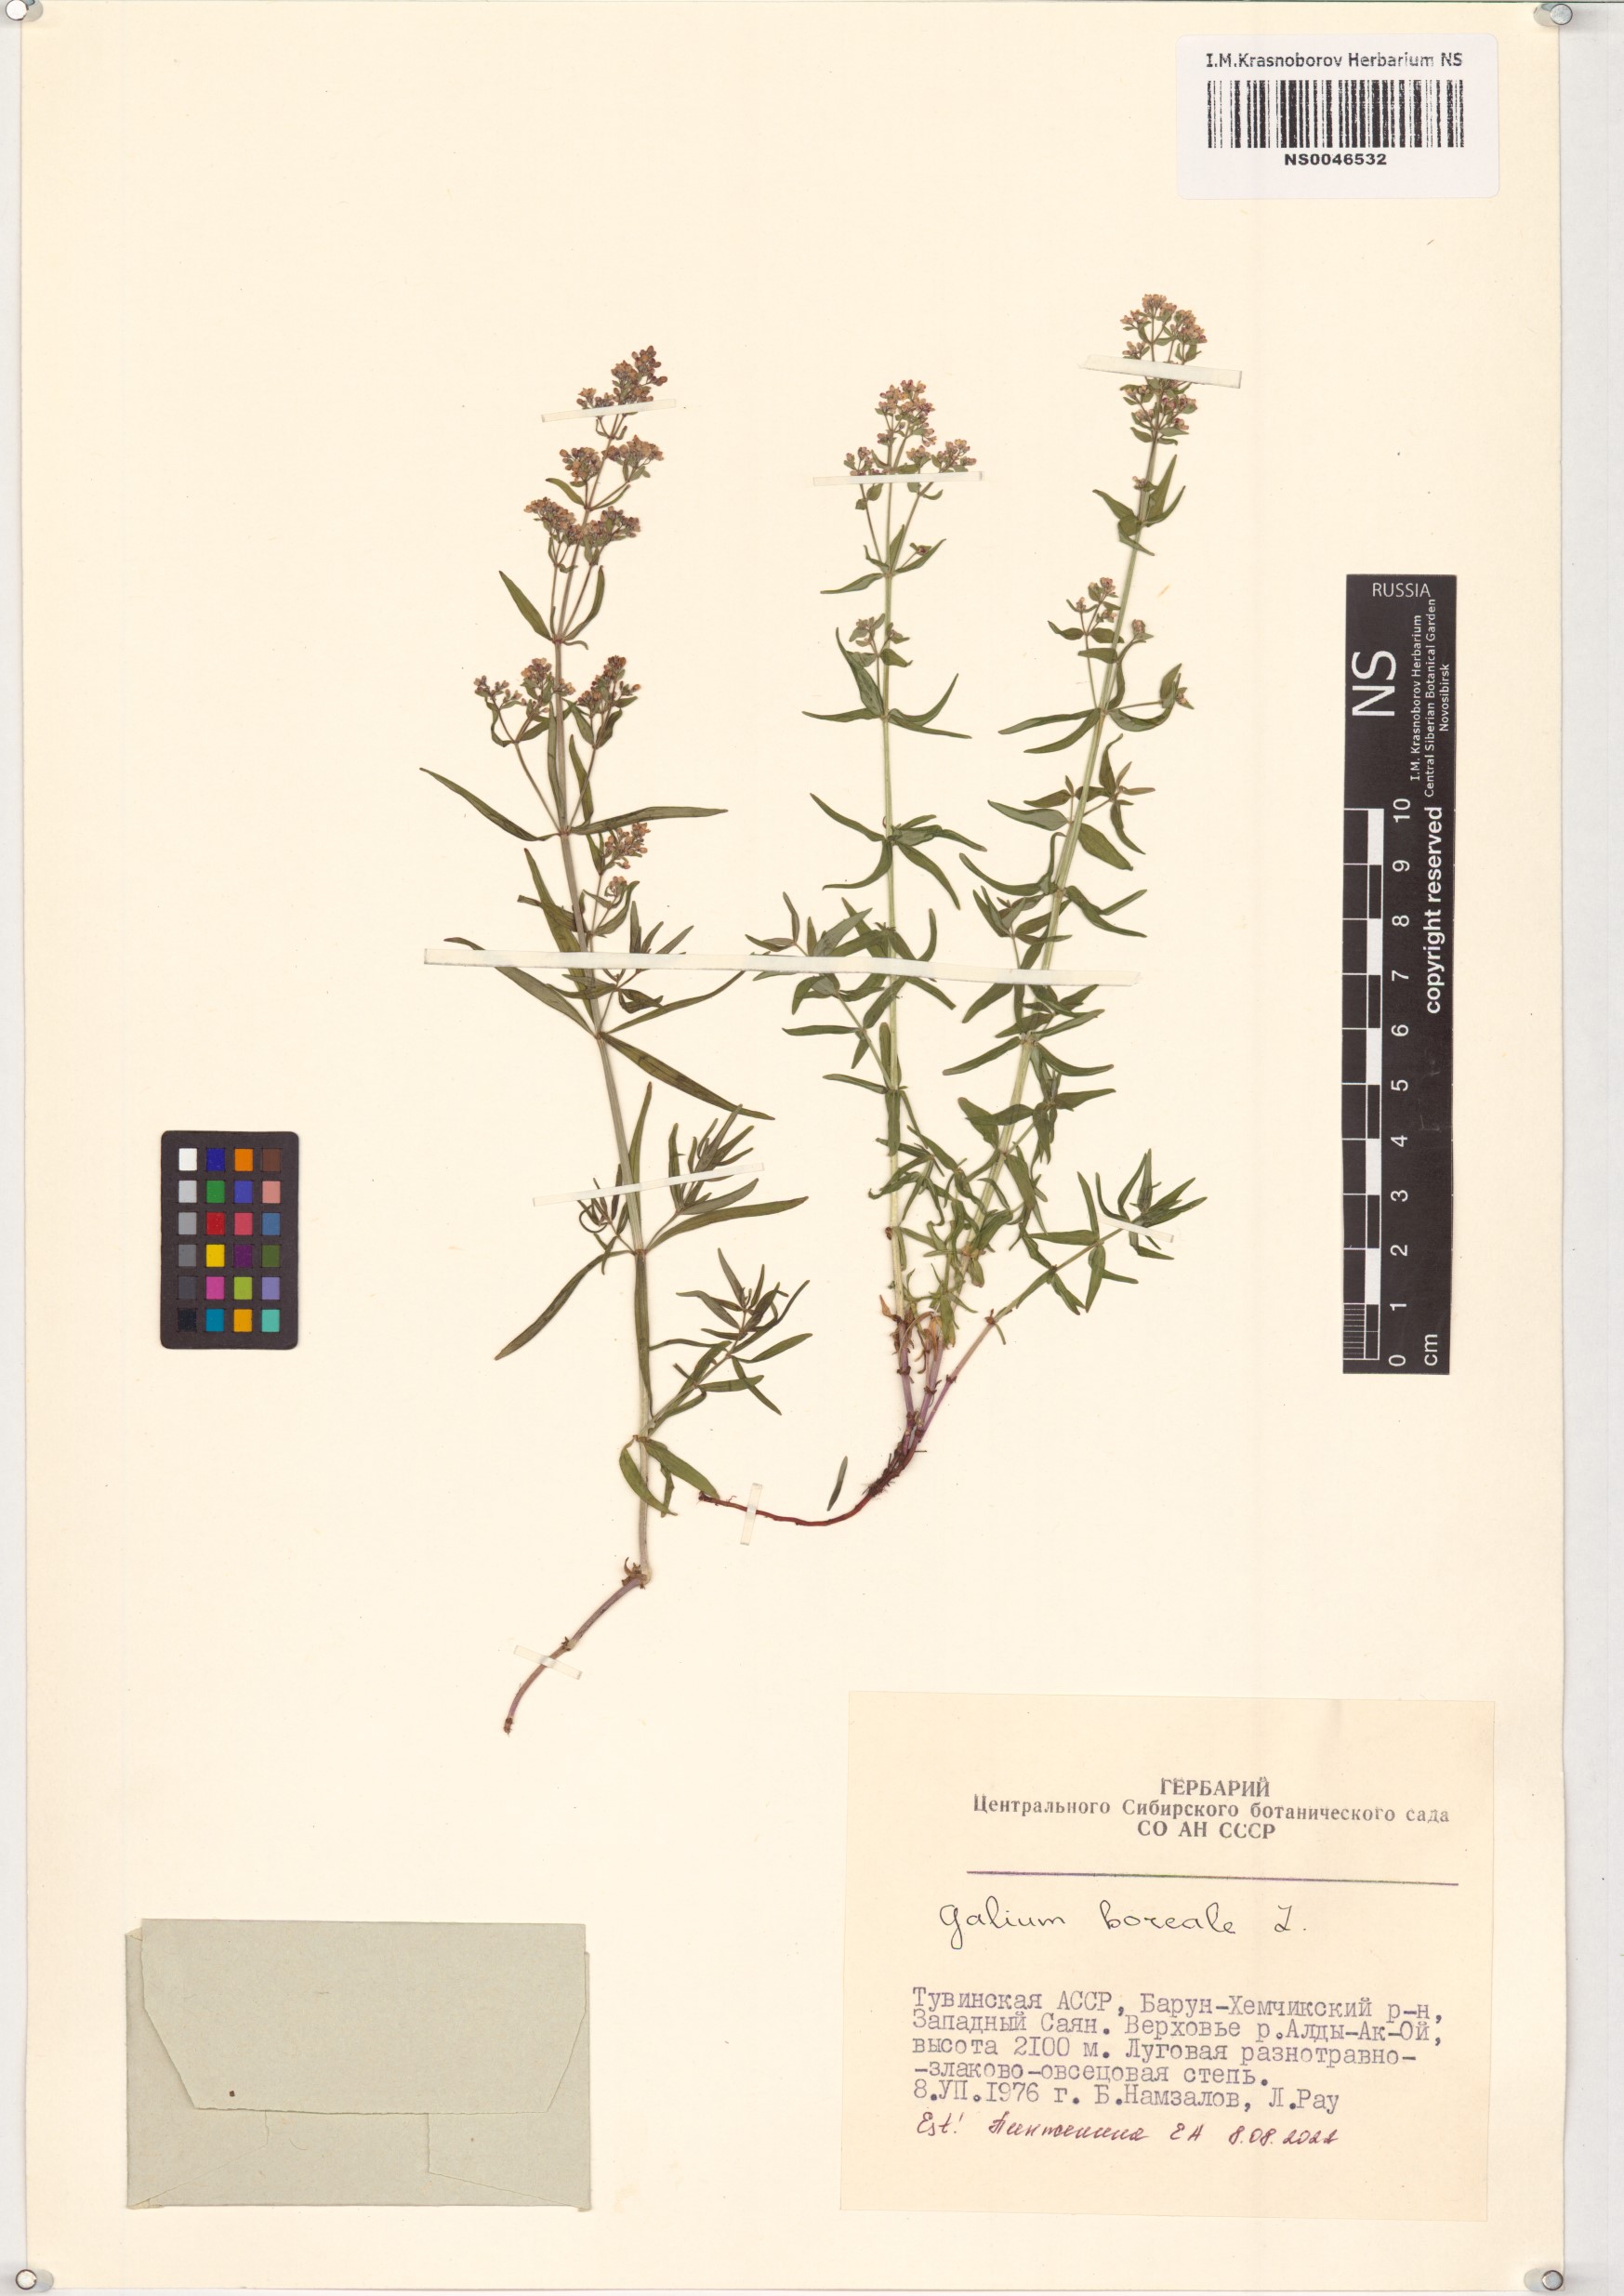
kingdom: Plantae
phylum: Tracheophyta
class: Magnoliopsida
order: Gentianales
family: Rubiaceae
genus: Galium
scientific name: Galium boreale
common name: Northern bedstraw
